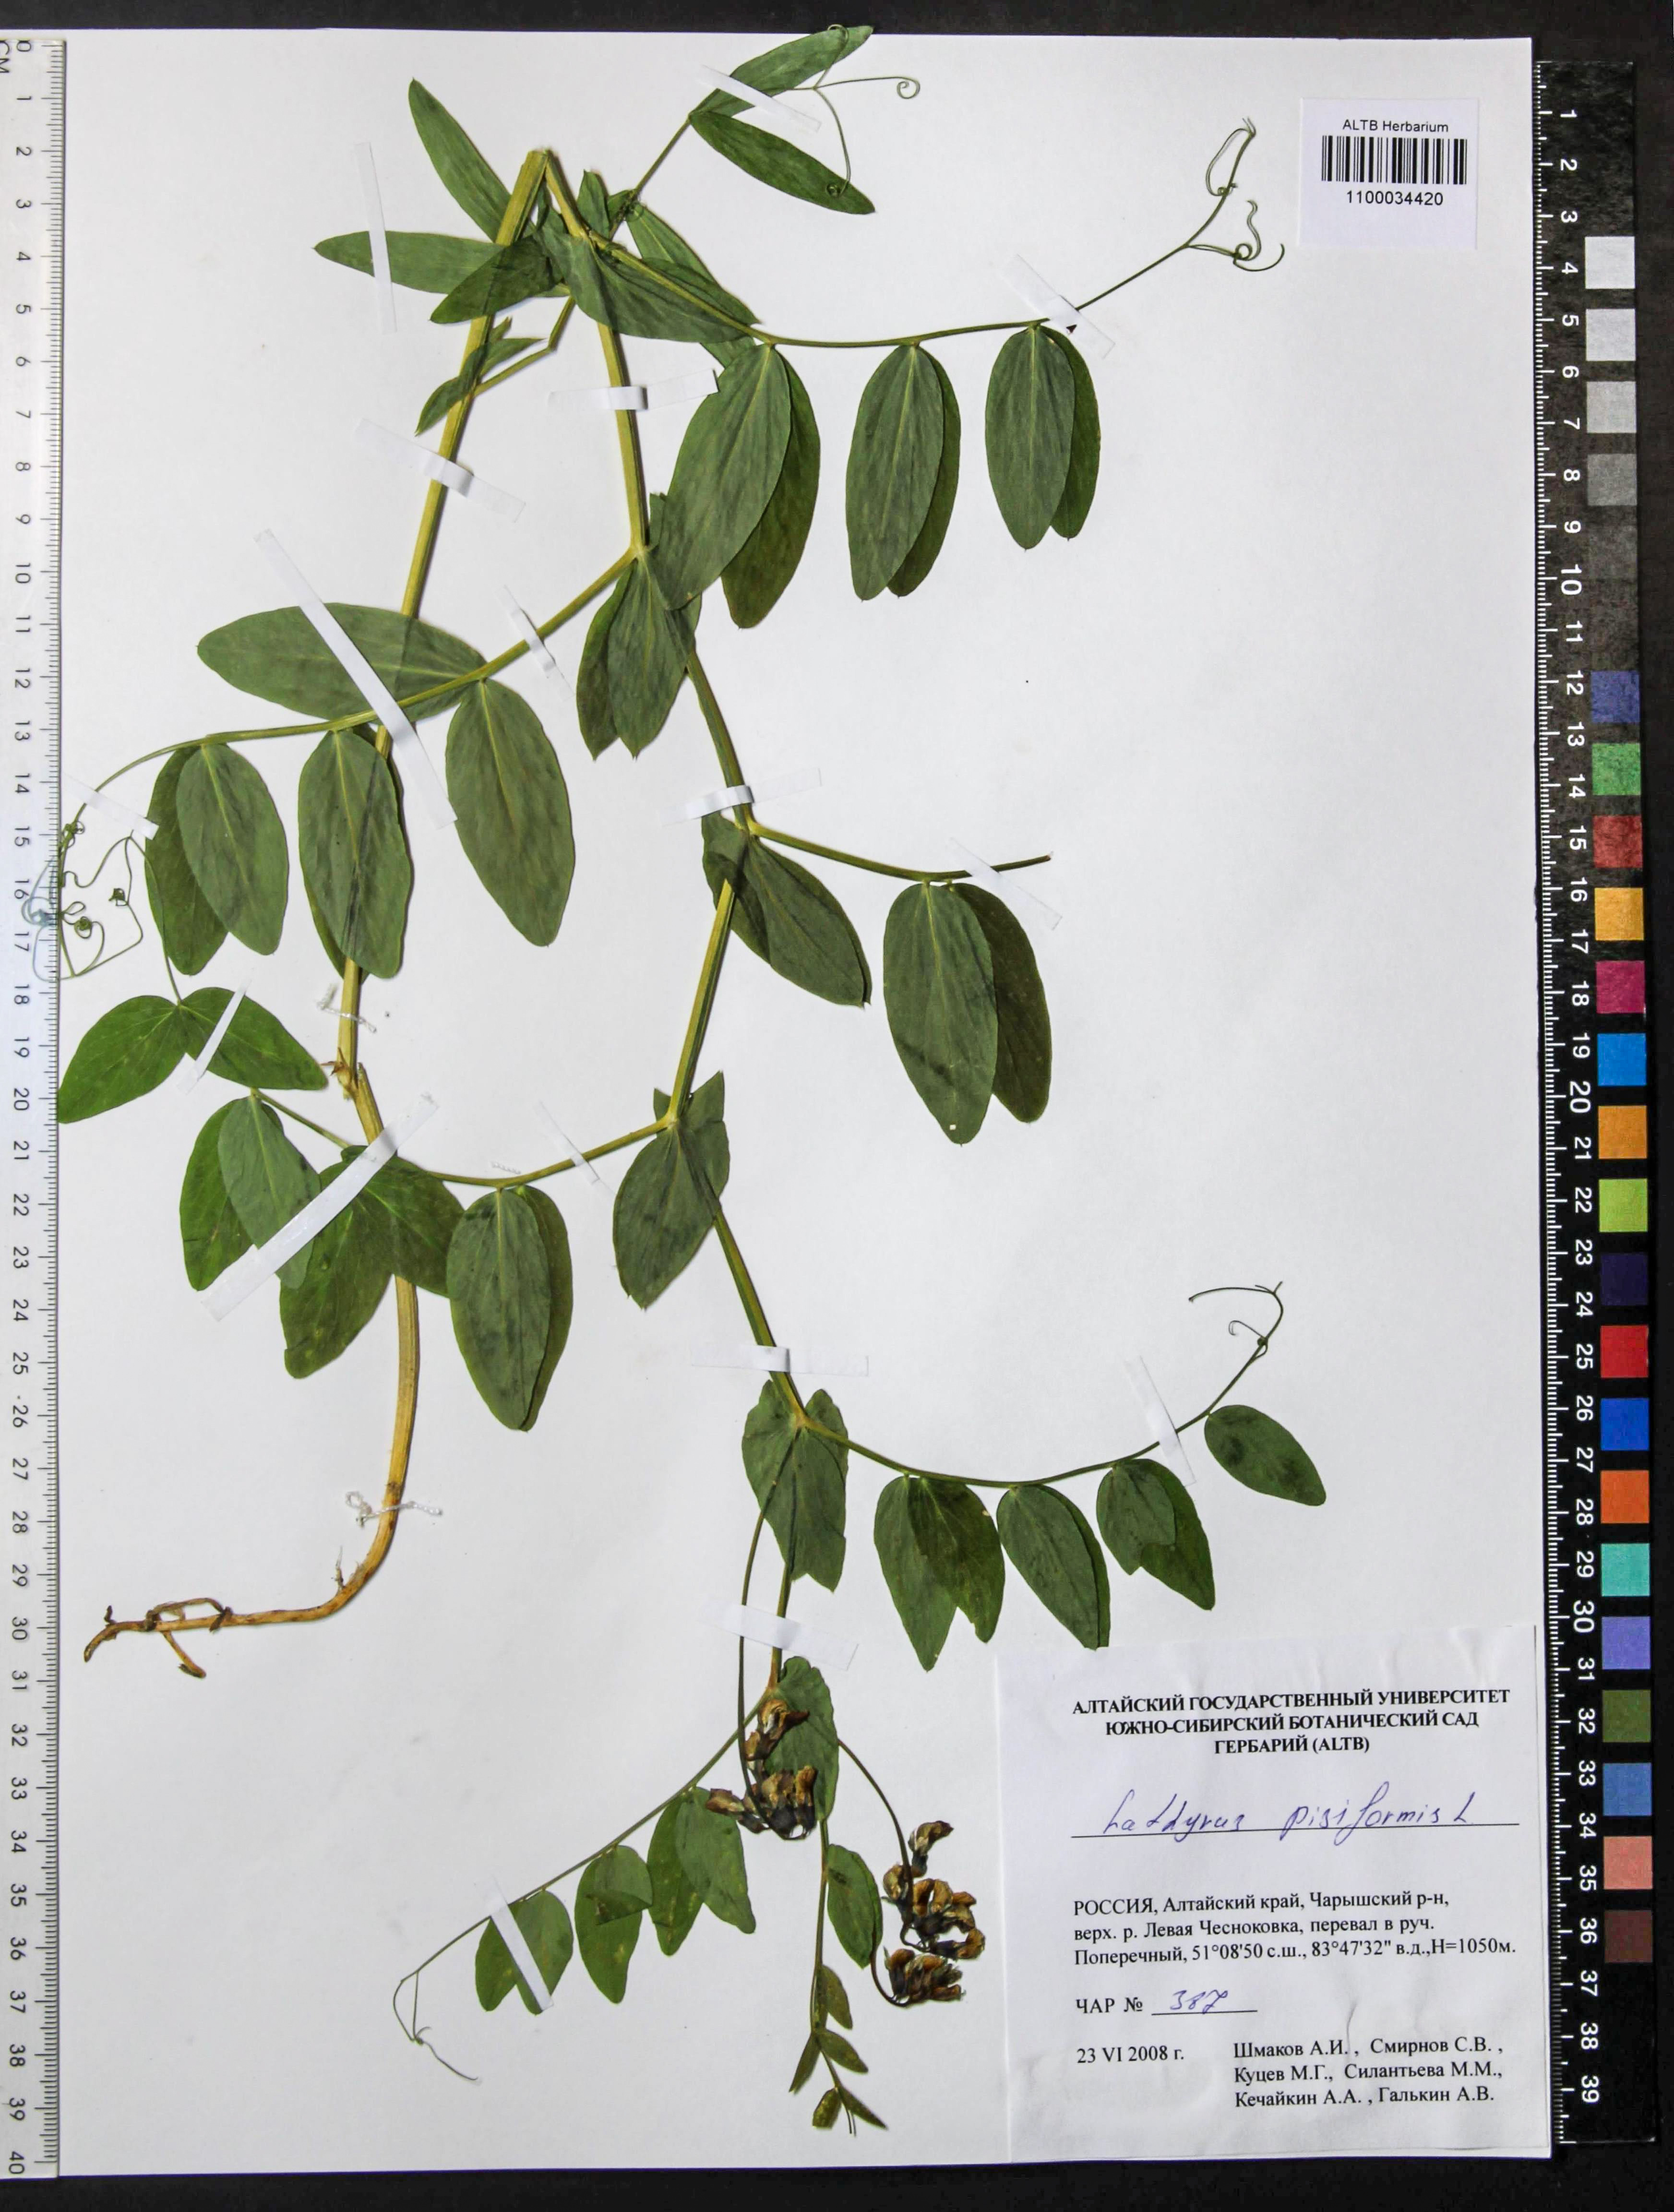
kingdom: Plantae
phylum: Tracheophyta
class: Magnoliopsida
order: Fabales
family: Fabaceae
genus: Lathyrus
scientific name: Lathyrus pisiformis
